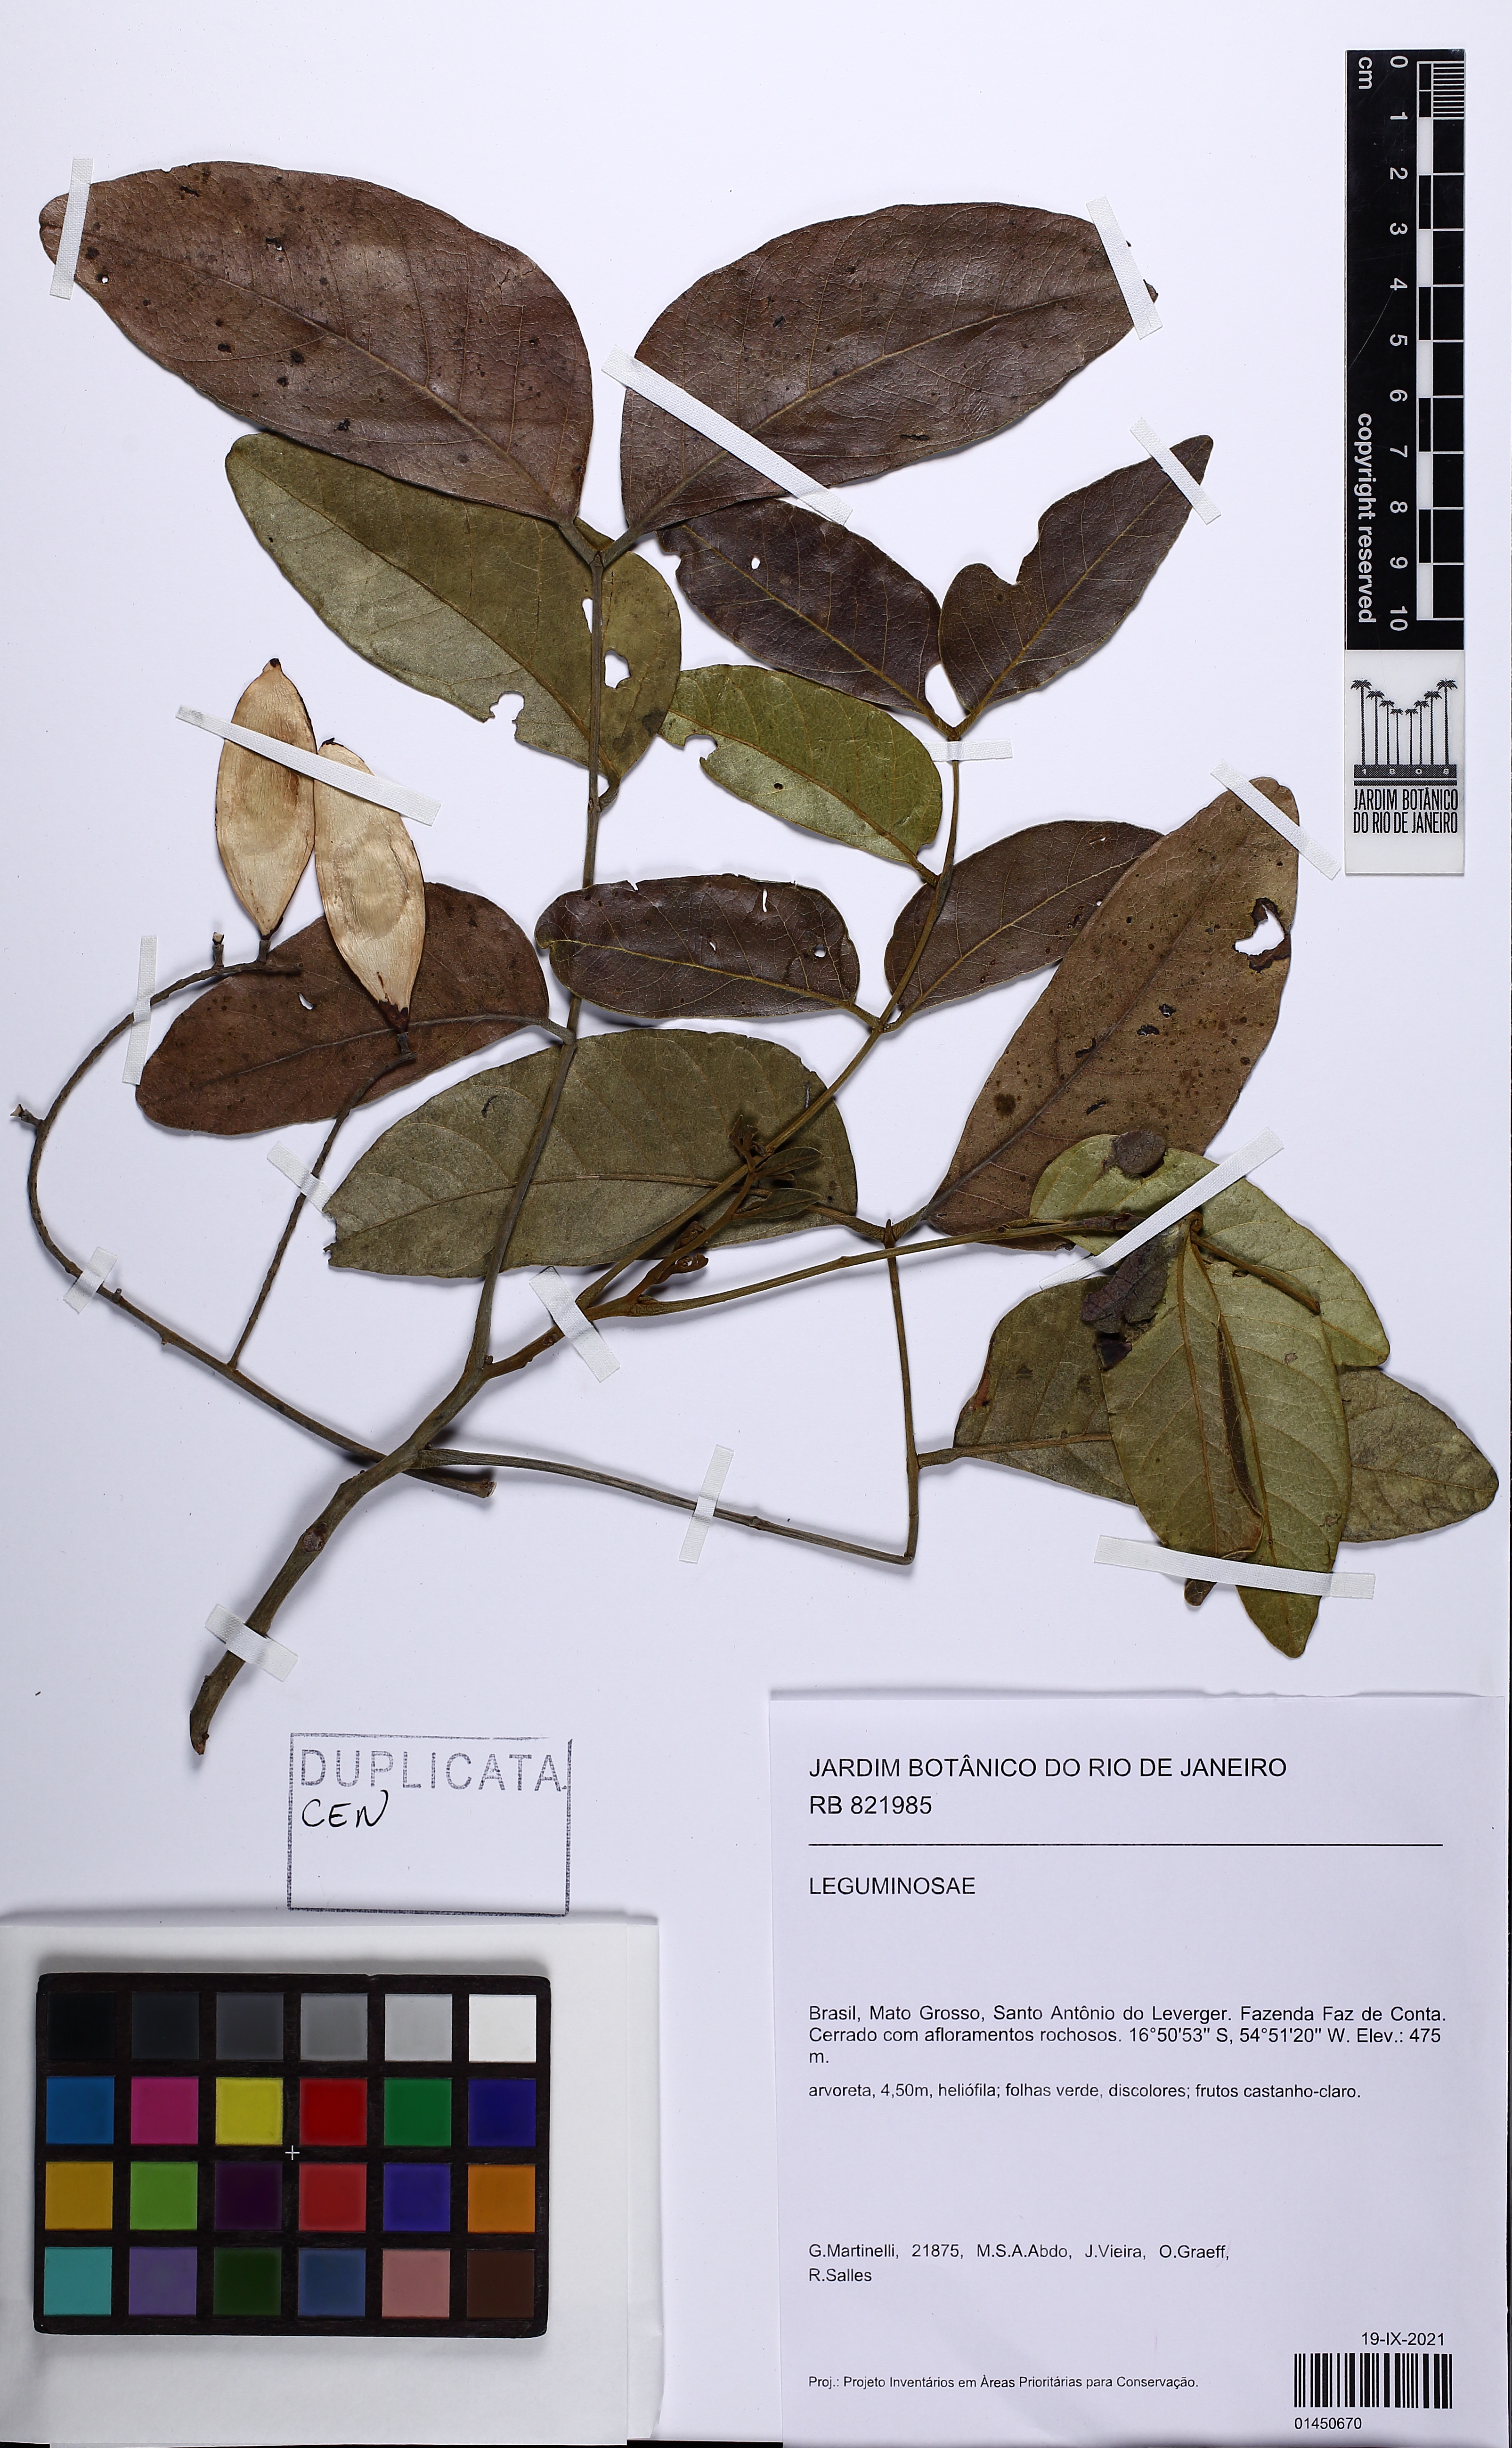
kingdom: Plantae
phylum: Tracheophyta
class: Magnoliopsida
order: Fabales
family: Fabaceae
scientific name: Fabaceae
